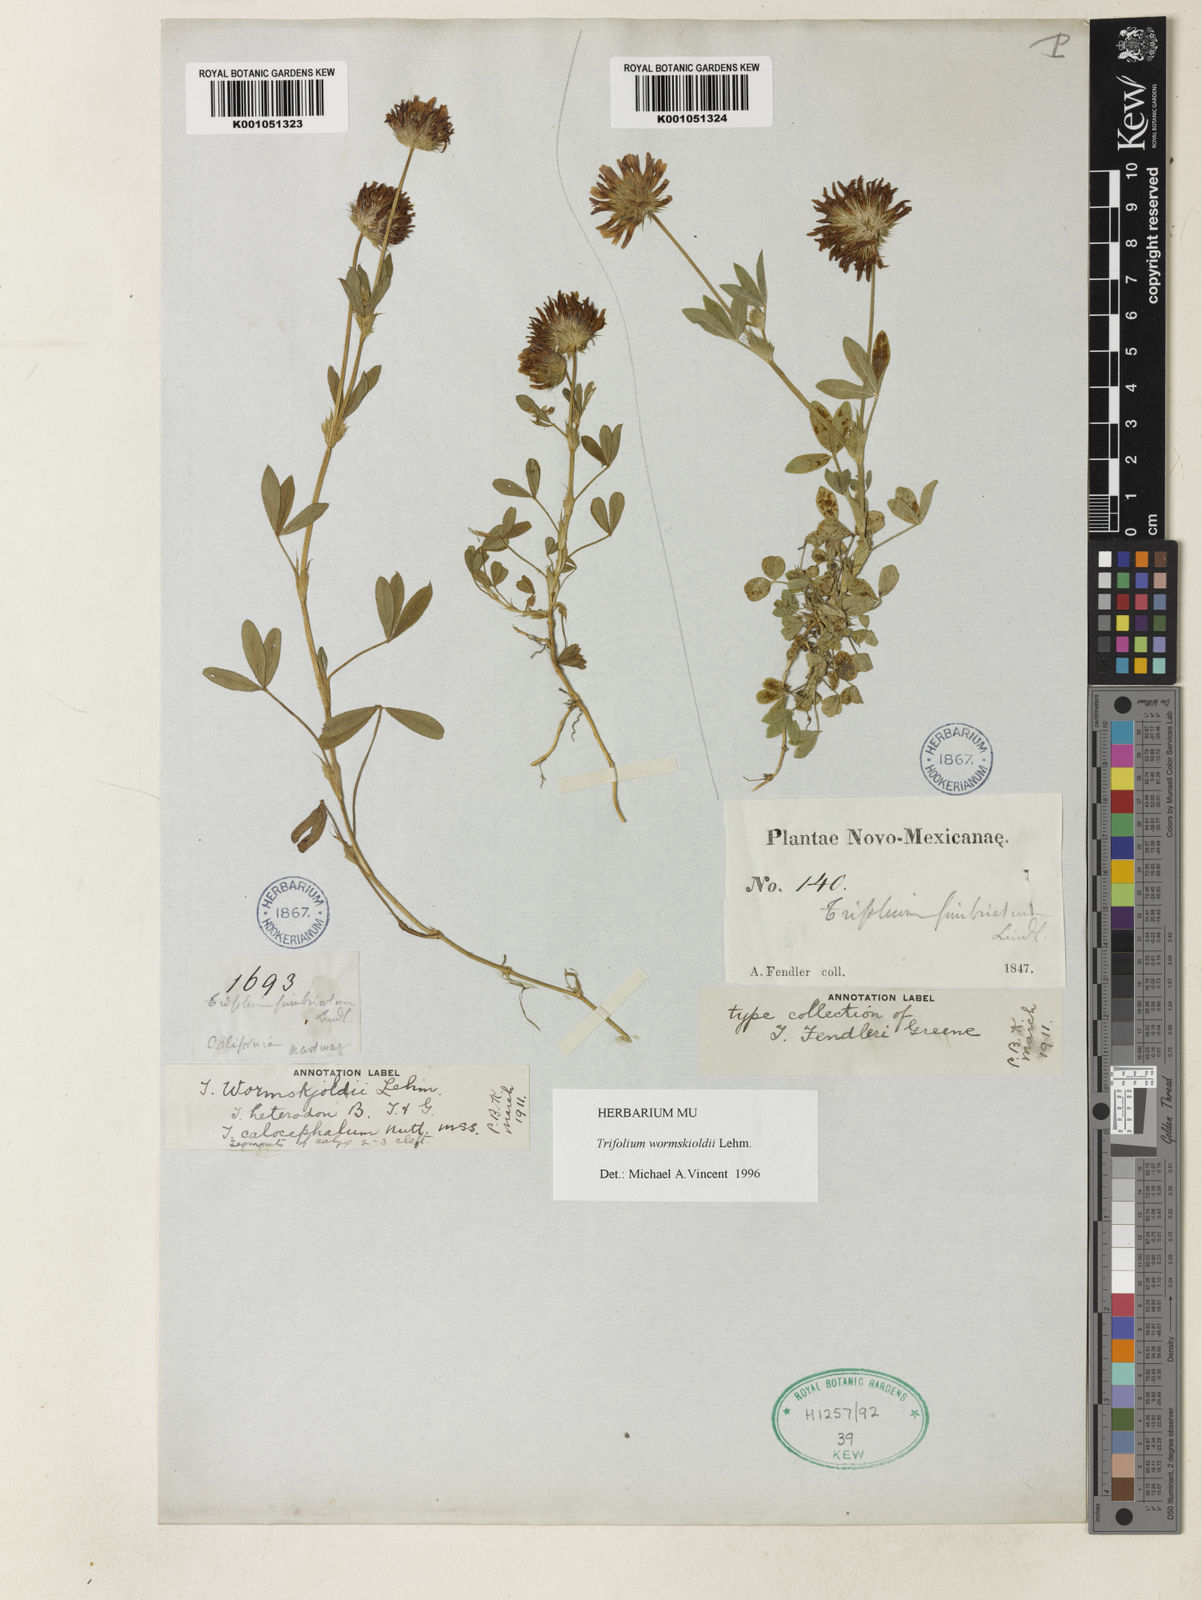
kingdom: Plantae
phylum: Tracheophyta
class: Magnoliopsida
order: Fabales
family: Fabaceae
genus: Trifolium
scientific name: Trifolium willdenovii
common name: Tomcat clover
